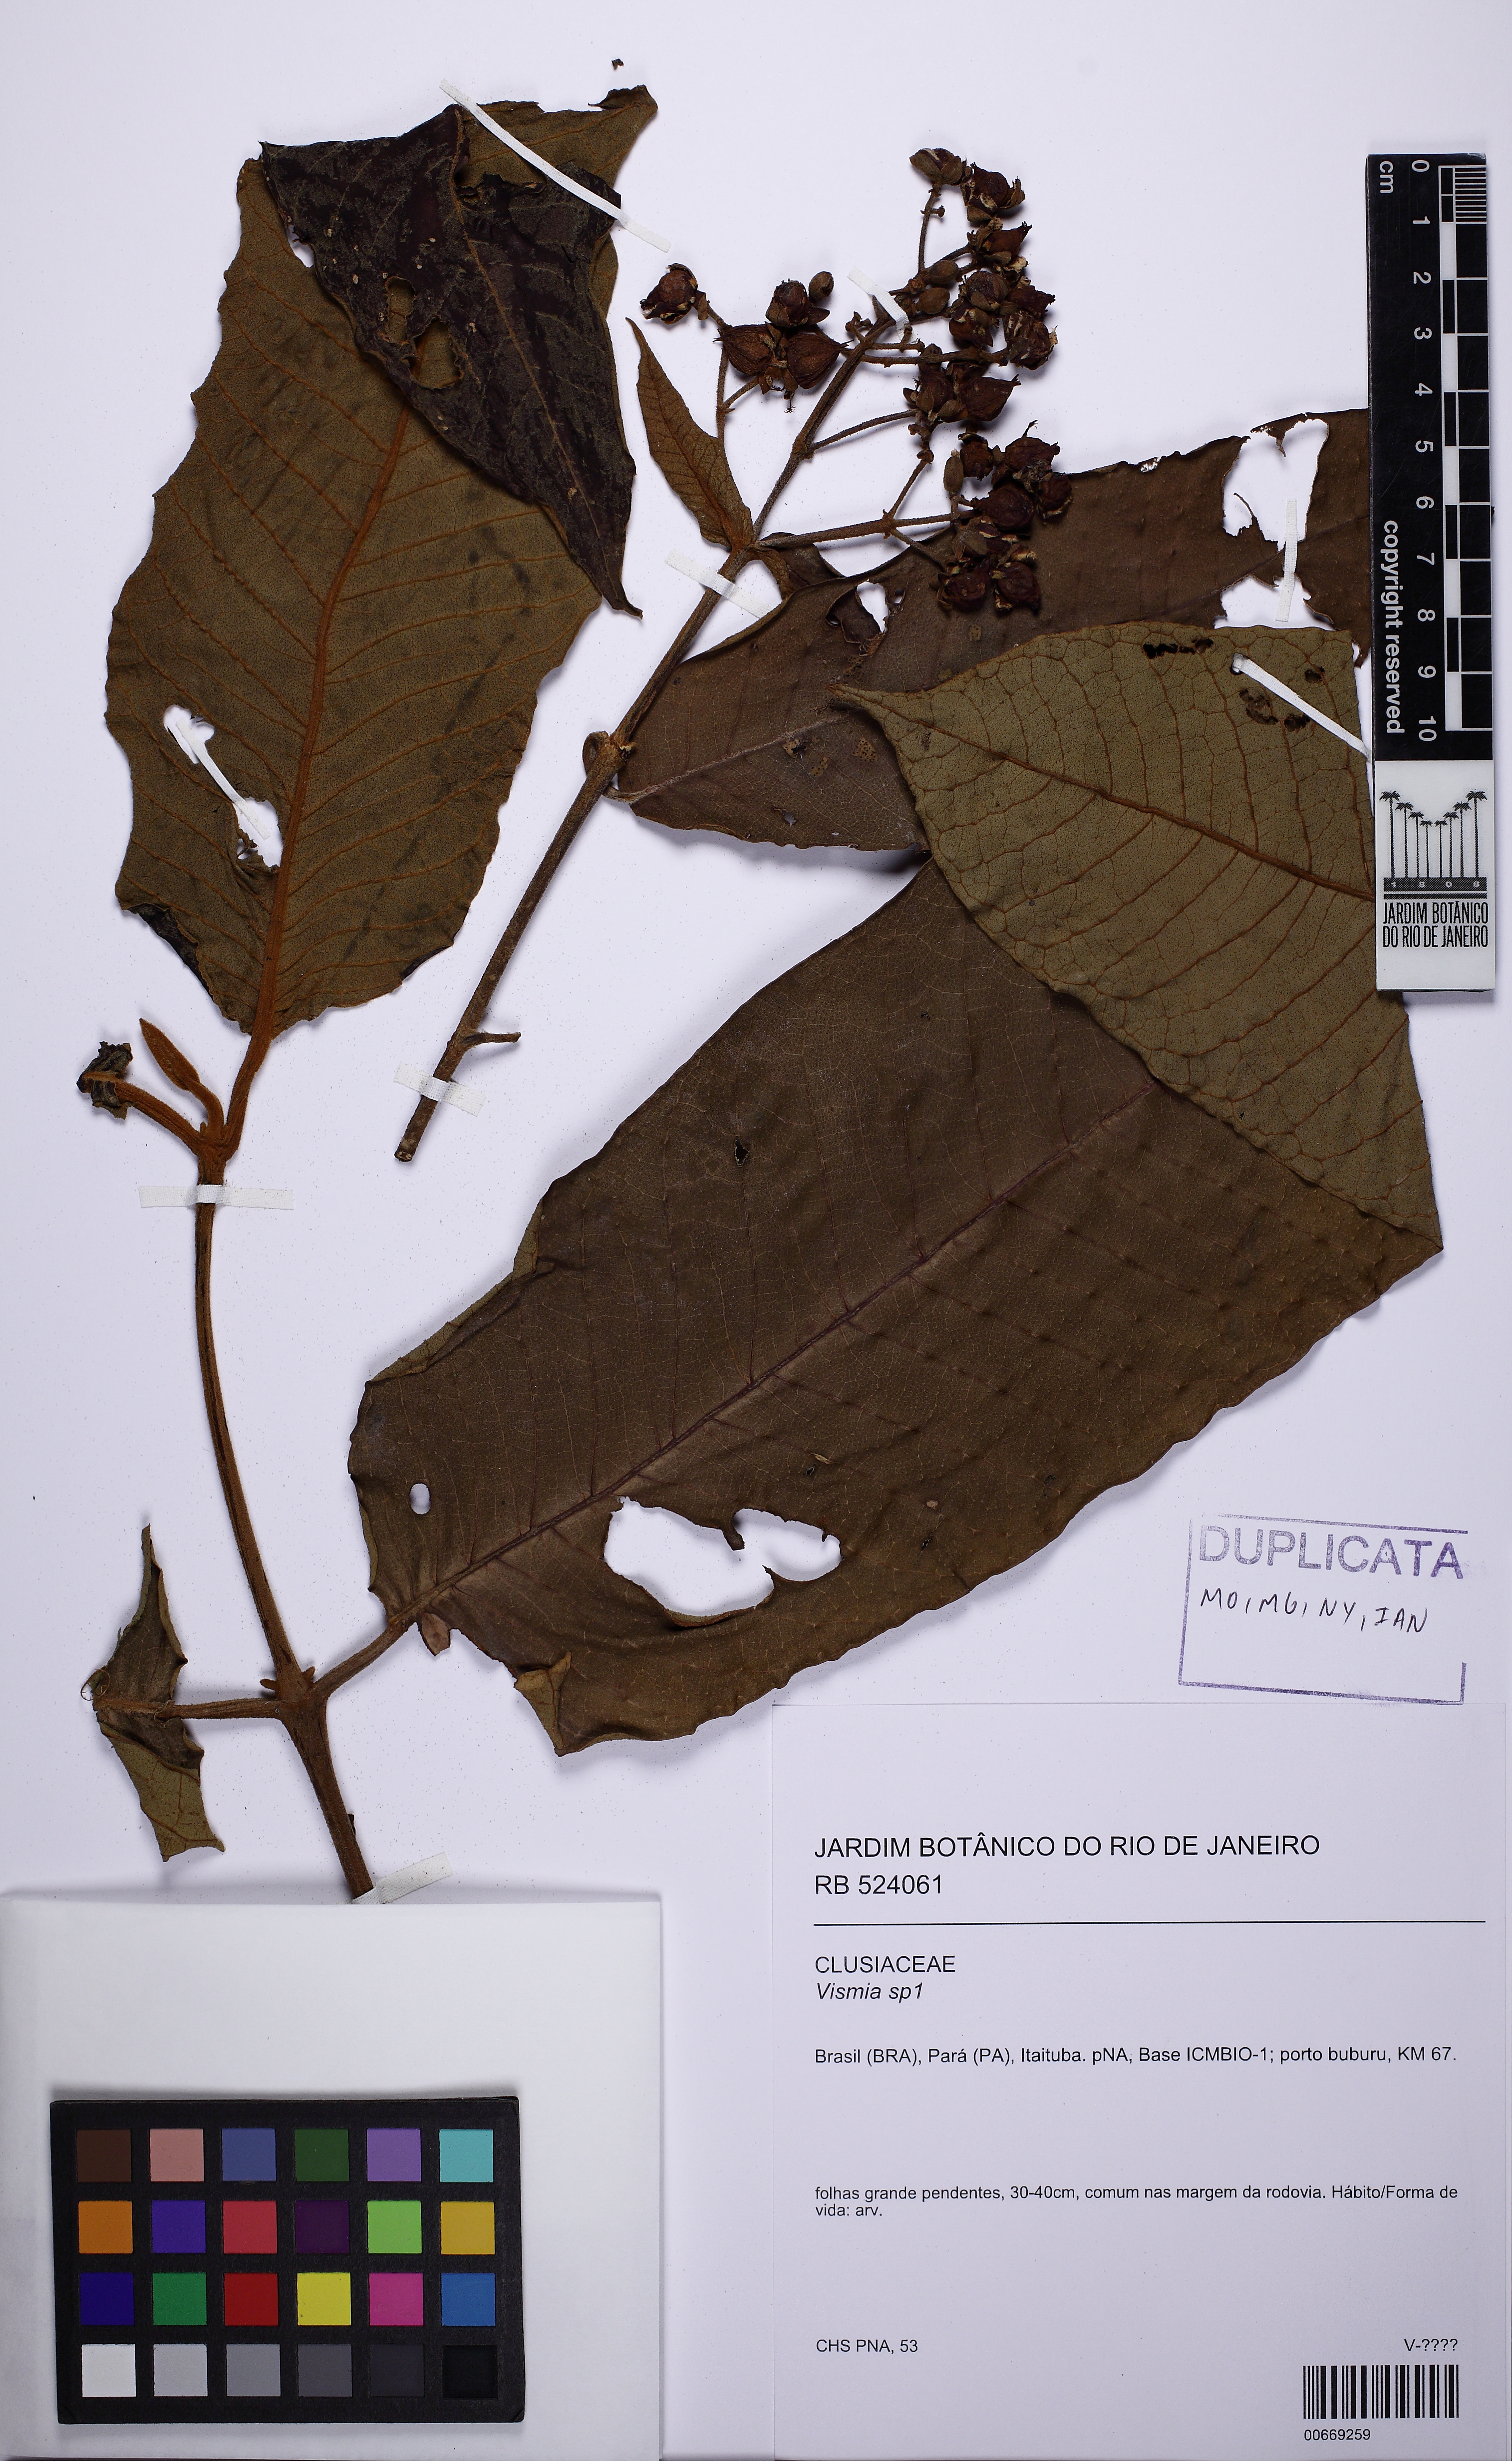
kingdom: Plantae
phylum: Tracheophyta
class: Magnoliopsida
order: Malpighiales
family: Hypericaceae
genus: Vismia
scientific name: Vismia macrophylla
